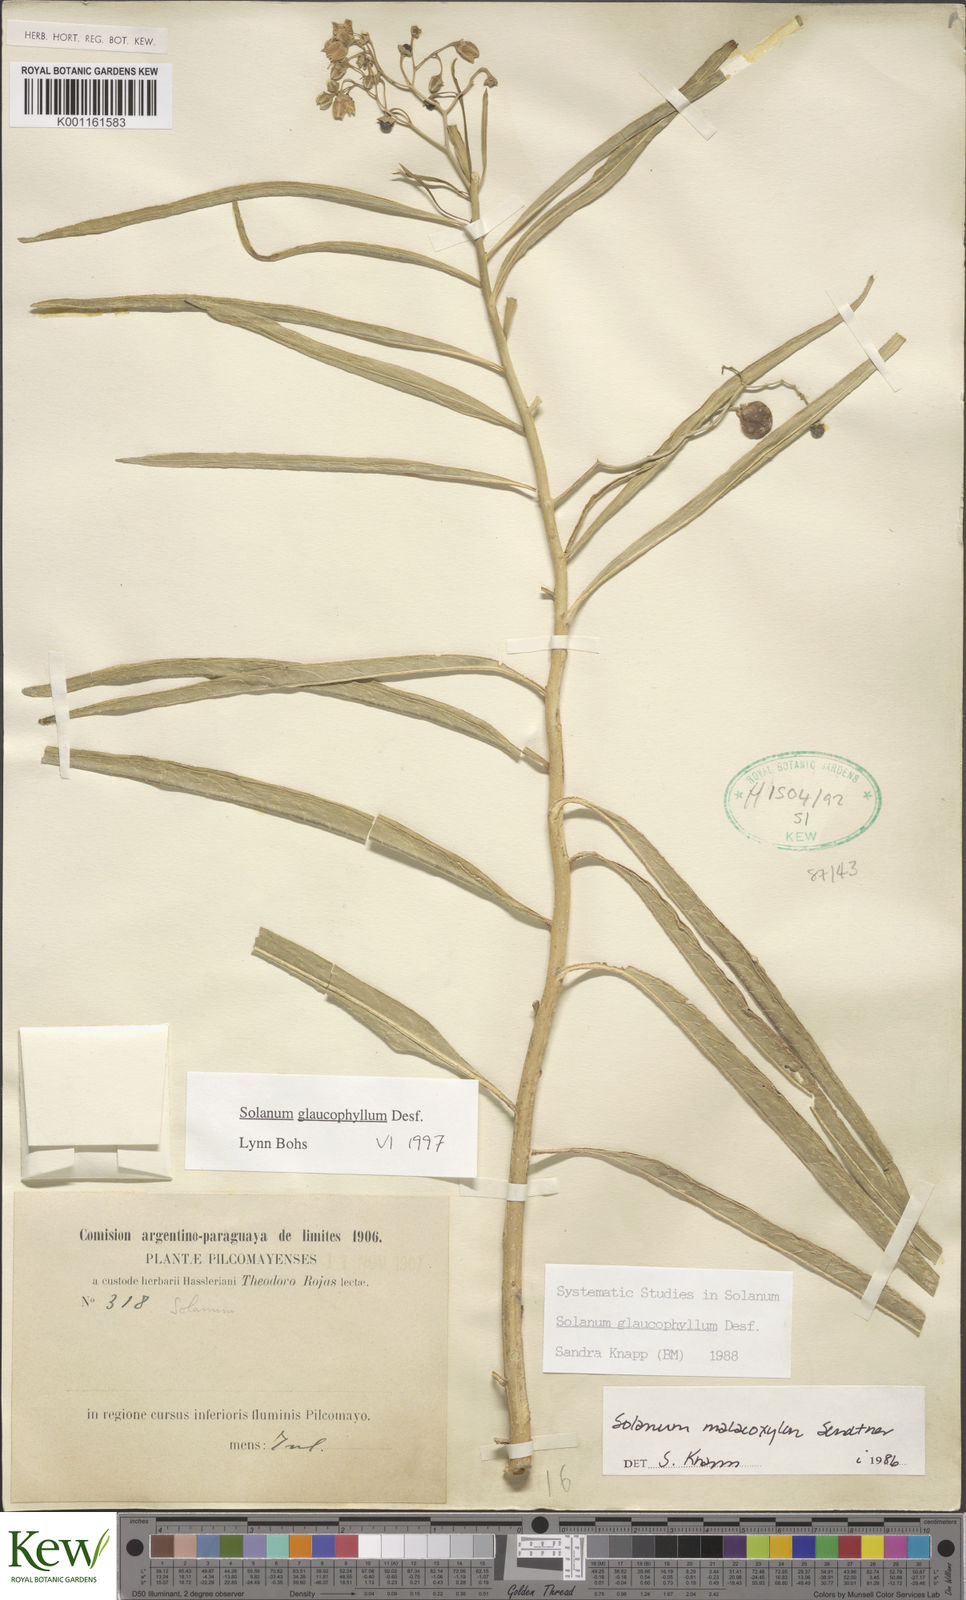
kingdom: Plantae
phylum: Tracheophyta
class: Magnoliopsida
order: Solanales
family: Solanaceae
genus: Solanum
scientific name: Solanum glaucophyllum
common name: Waxyleaf nightshade
